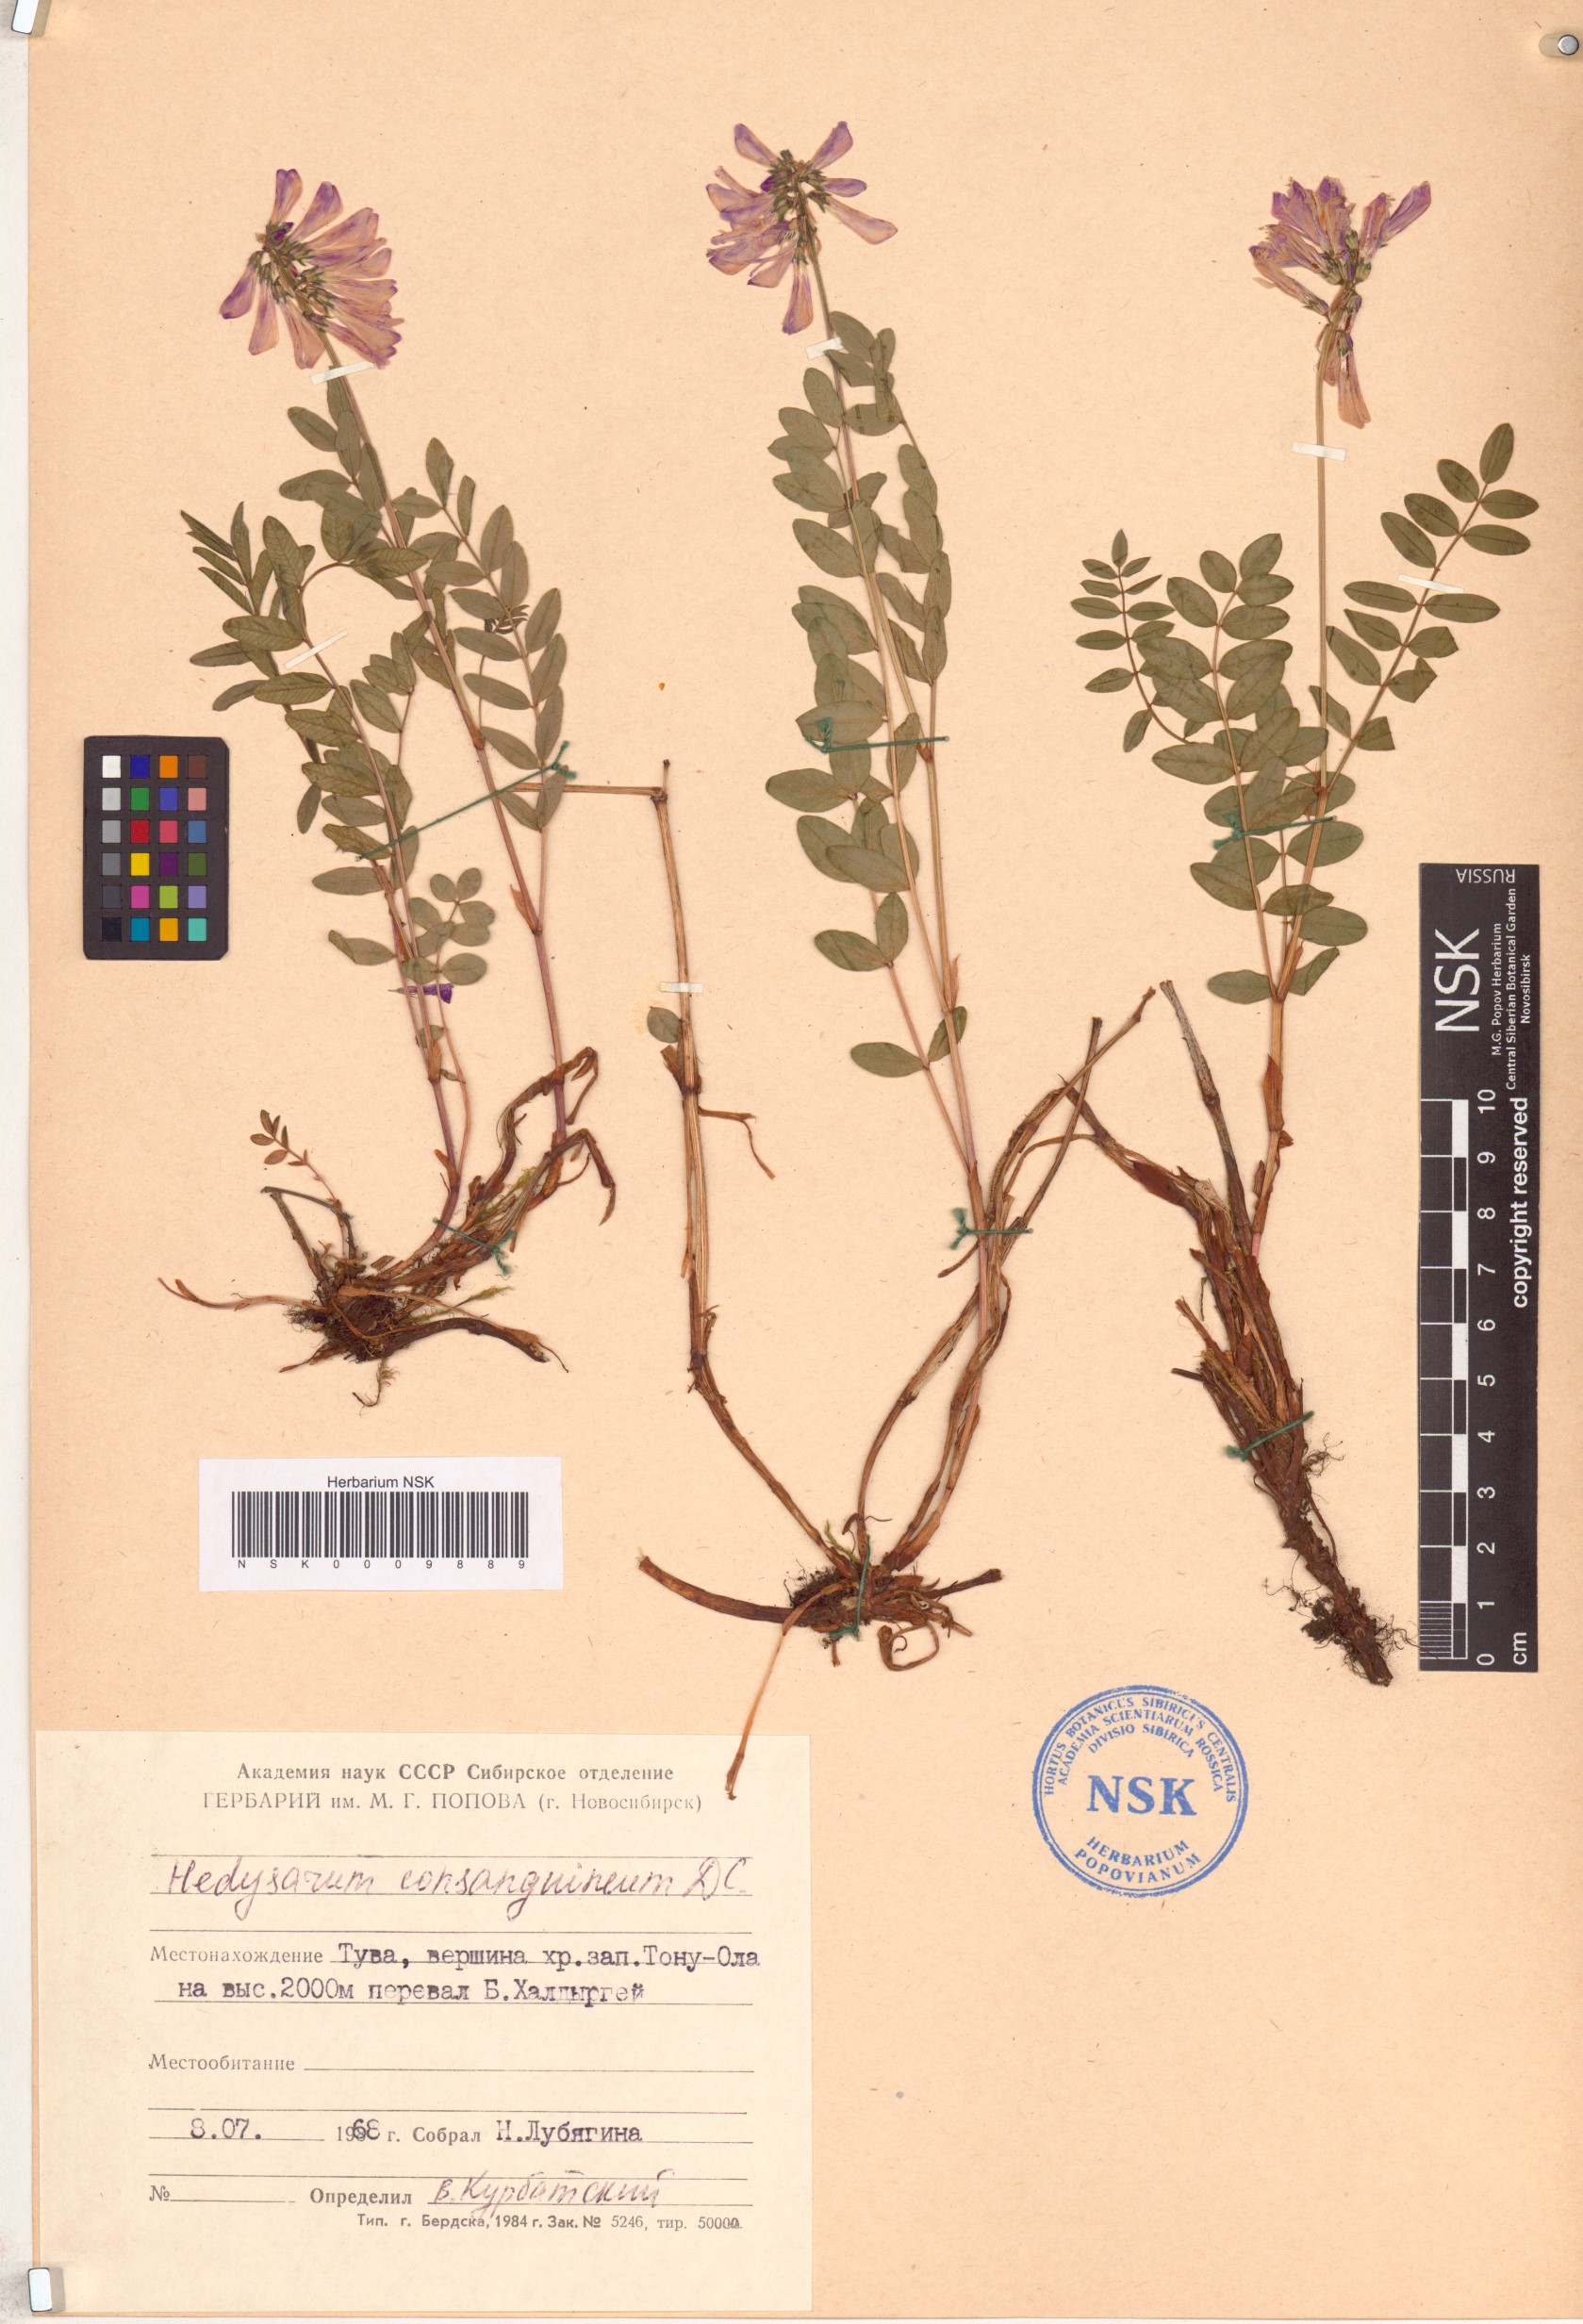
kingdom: Plantae
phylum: Tracheophyta
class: Magnoliopsida
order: Fabales
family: Fabaceae
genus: Hedysarum
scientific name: Hedysarum consanguineum
